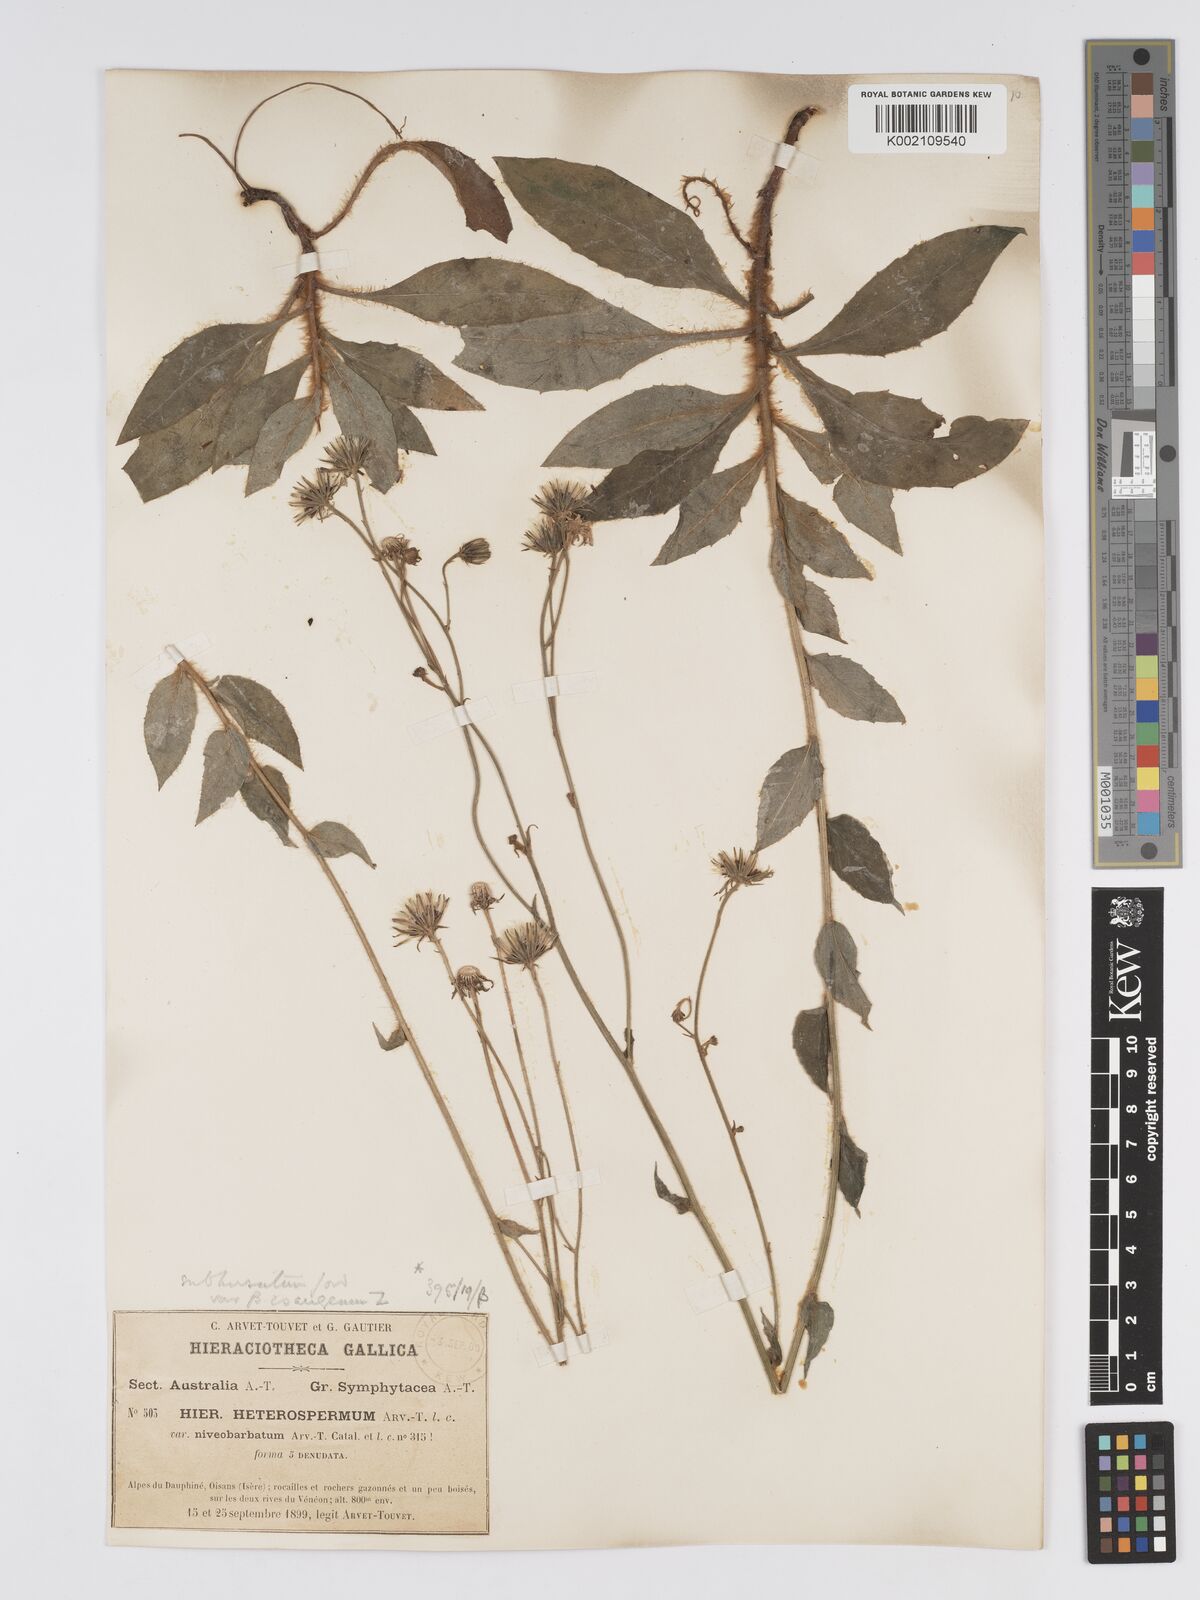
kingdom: Plantae
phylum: Tracheophyta
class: Magnoliopsida
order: Asterales
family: Asteraceae
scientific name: Asteraceae
